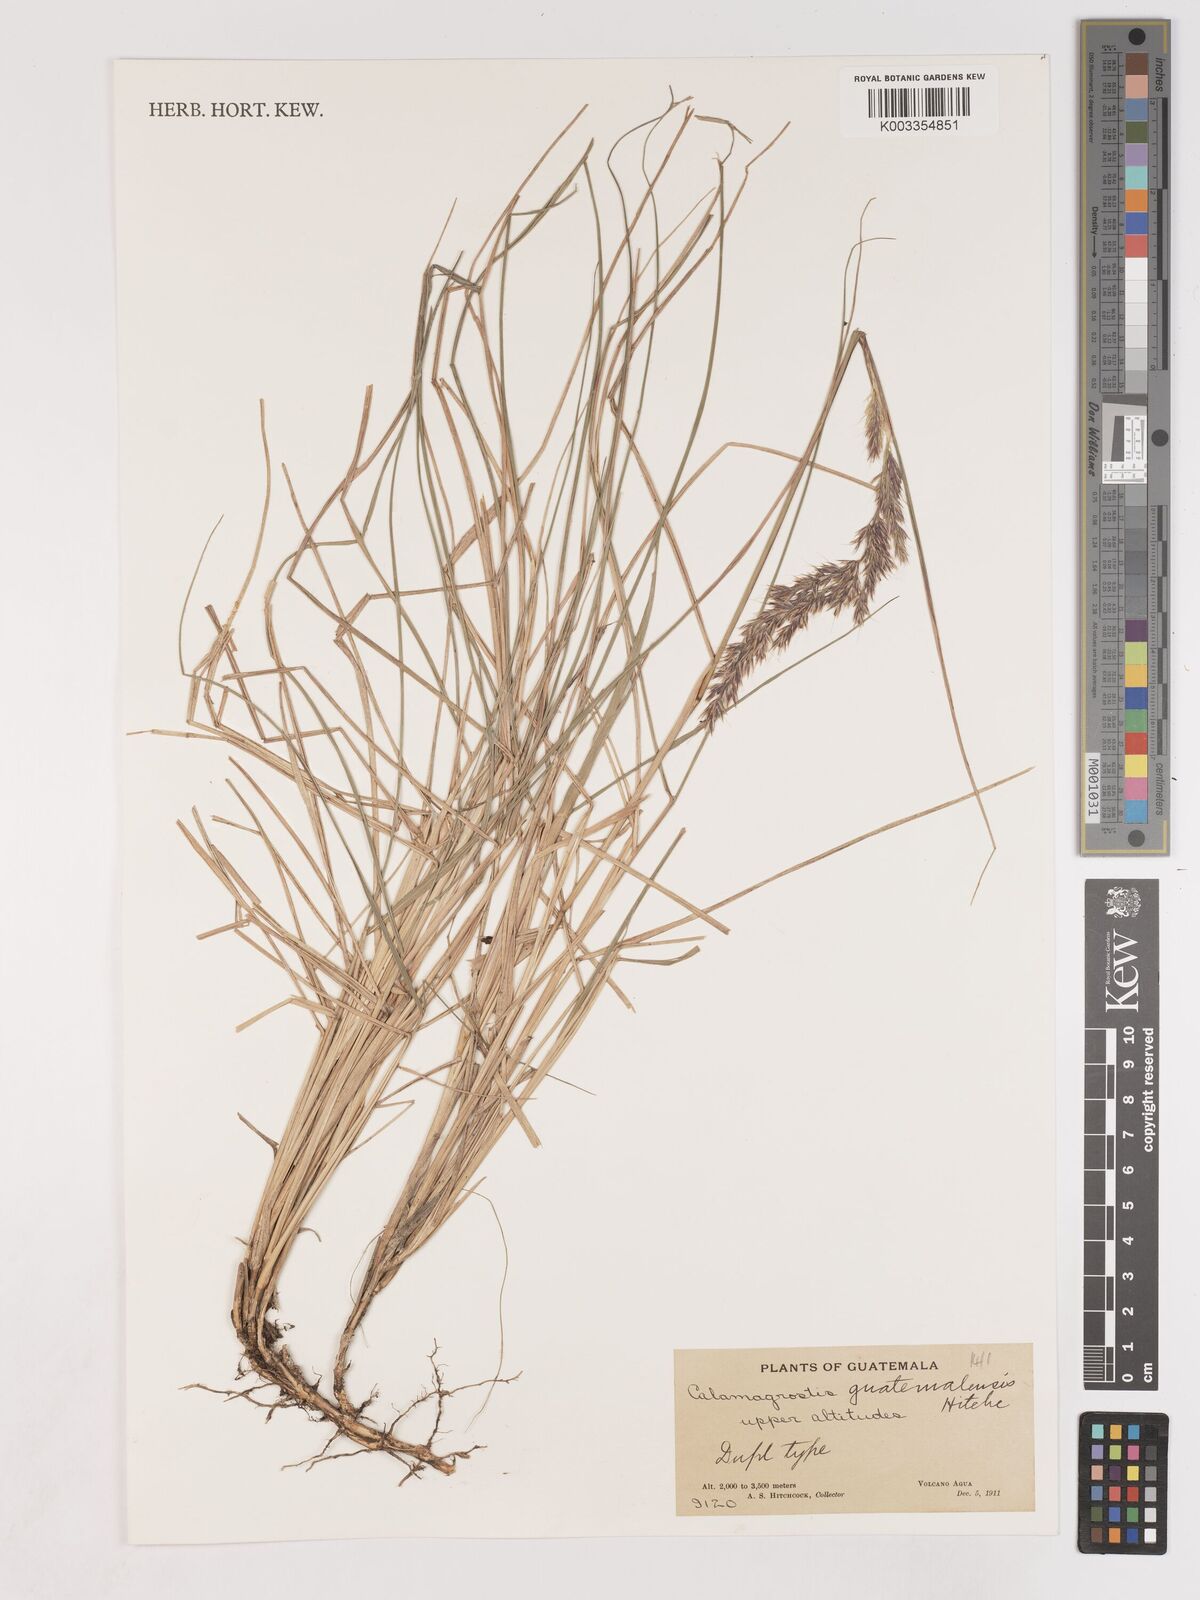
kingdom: Plantae
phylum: Tracheophyta
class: Liliopsida
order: Poales
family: Poaceae
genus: Calamagrostis
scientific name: Calamagrostis
